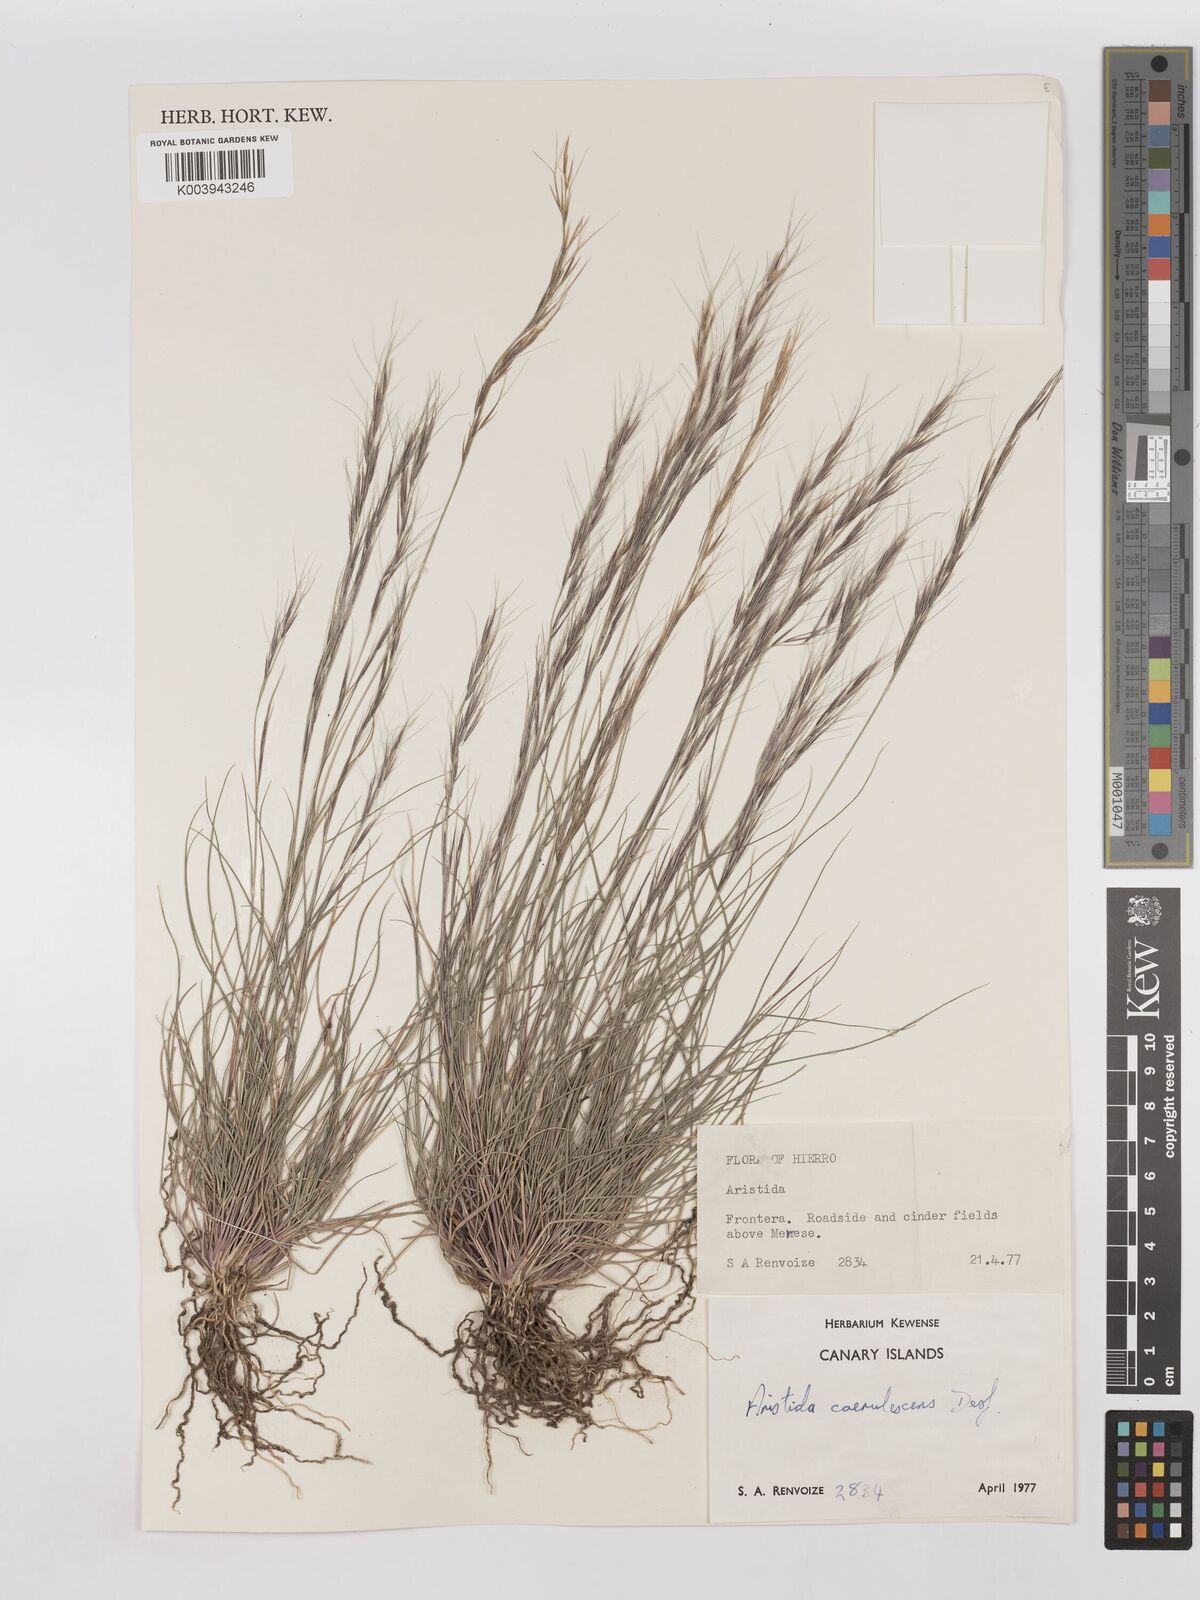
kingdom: Plantae
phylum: Tracheophyta
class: Liliopsida
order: Poales
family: Poaceae
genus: Aristida
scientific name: Aristida adscensionis
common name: Sixweeks threeawn
